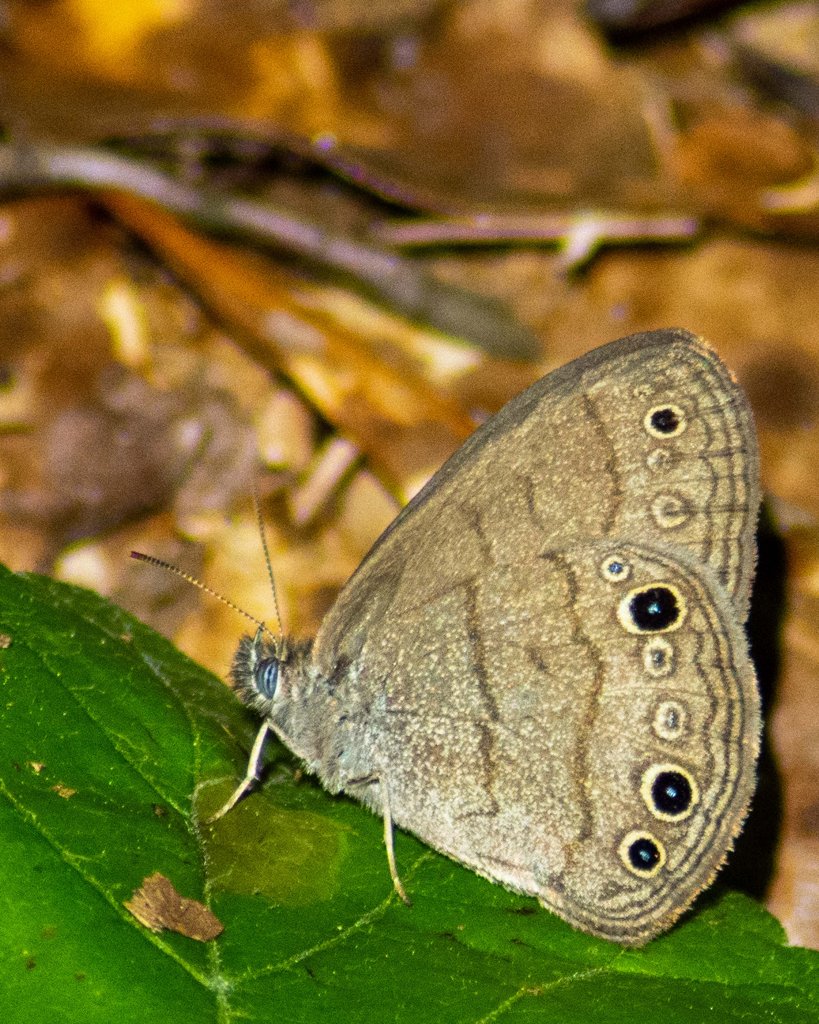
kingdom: Animalia
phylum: Arthropoda
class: Insecta
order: Lepidoptera
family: Nymphalidae
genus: Hermeuptychia
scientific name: Hermeuptychia hermes
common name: Carolina Satyr
